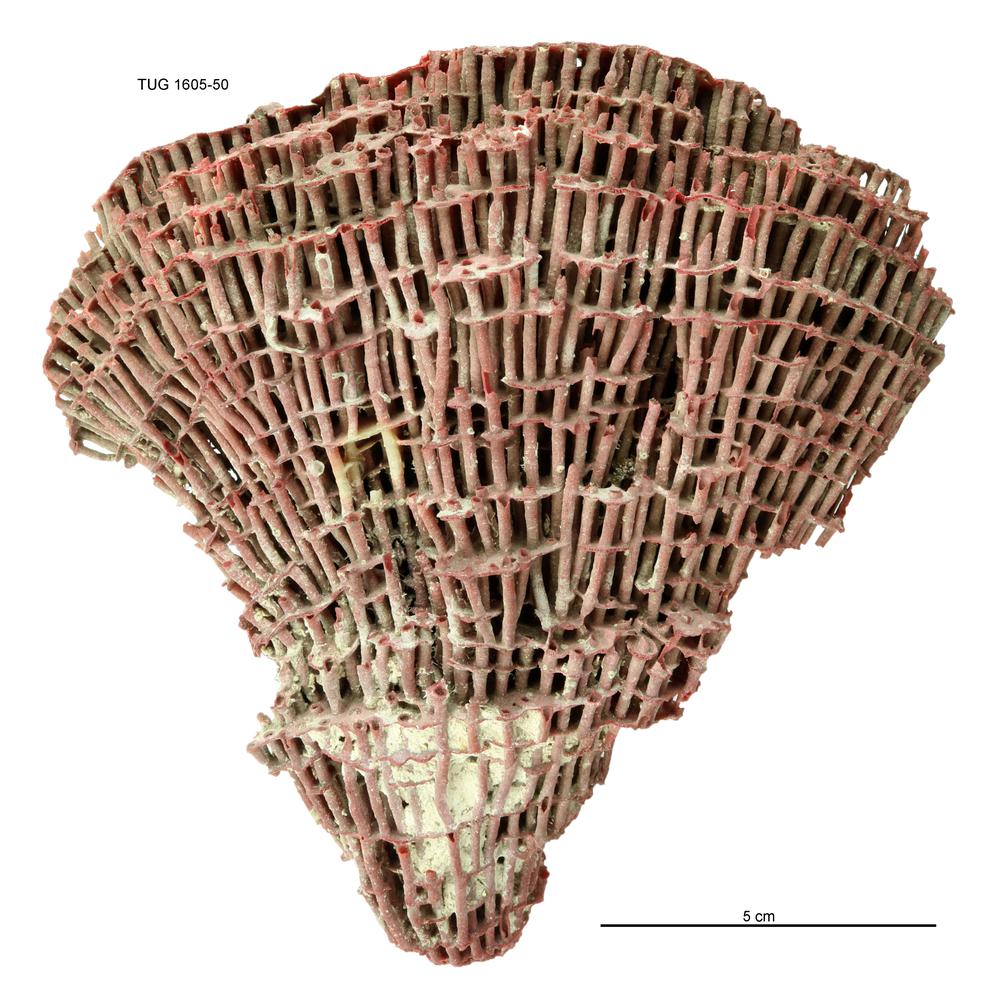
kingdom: Animalia
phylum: Cnidaria
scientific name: Cnidaria
